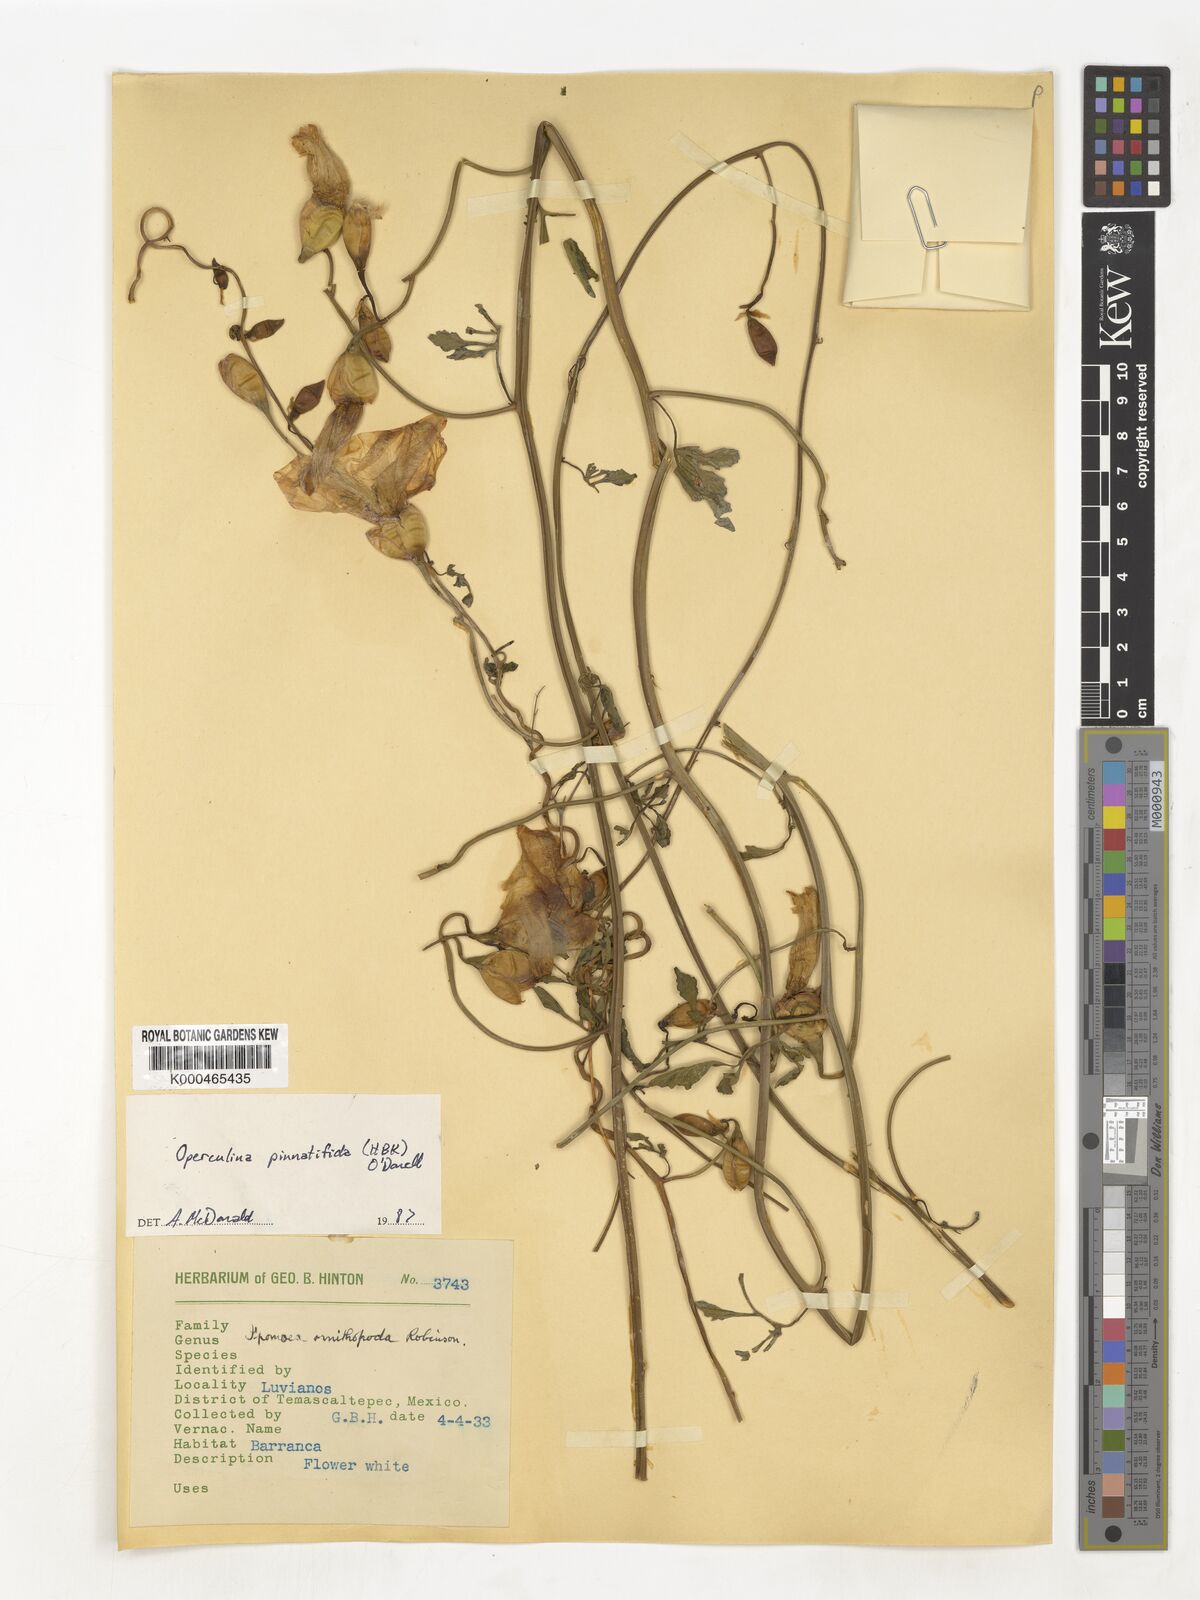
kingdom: Plantae
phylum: Tracheophyta
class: Magnoliopsida
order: Solanales
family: Convolvulaceae
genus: Operculina
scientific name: Operculina
